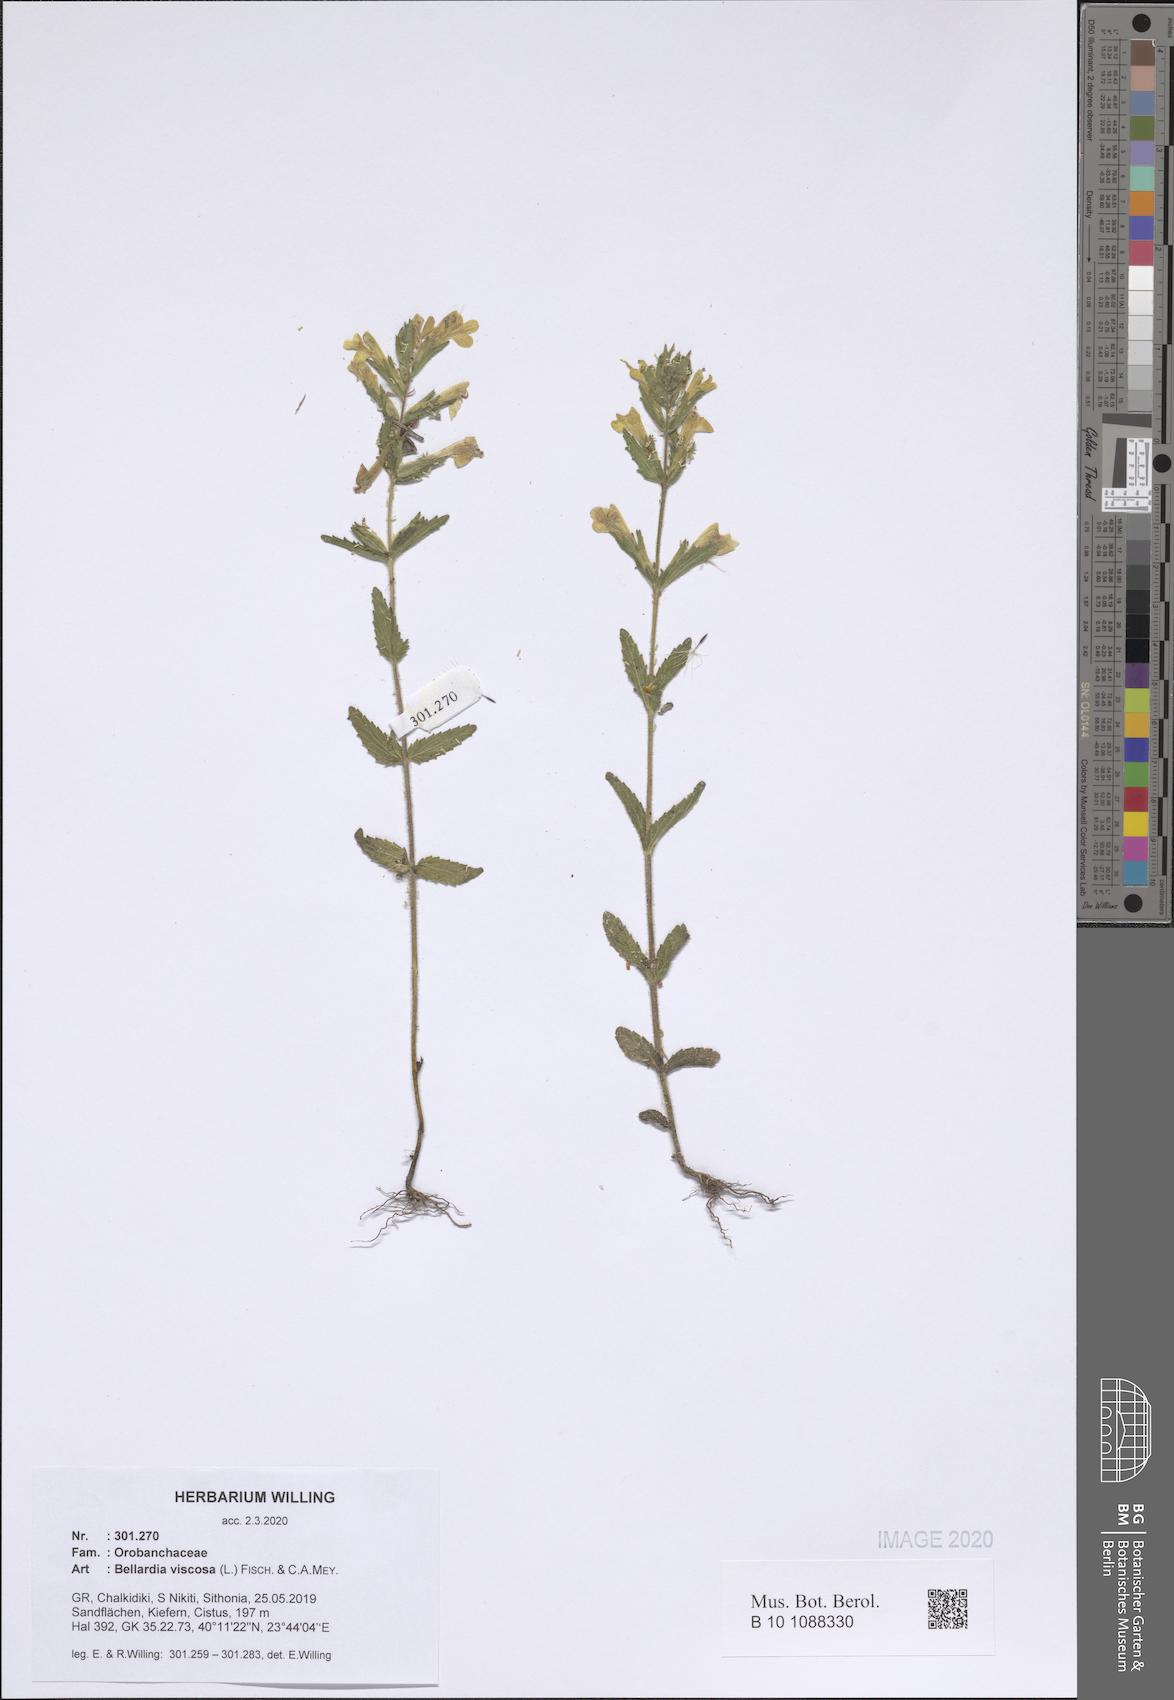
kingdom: Plantae
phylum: Tracheophyta
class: Magnoliopsida
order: Lamiales
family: Orobanchaceae
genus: Bellardia
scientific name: Bellardia viscosa
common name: Sticky parentucellia
